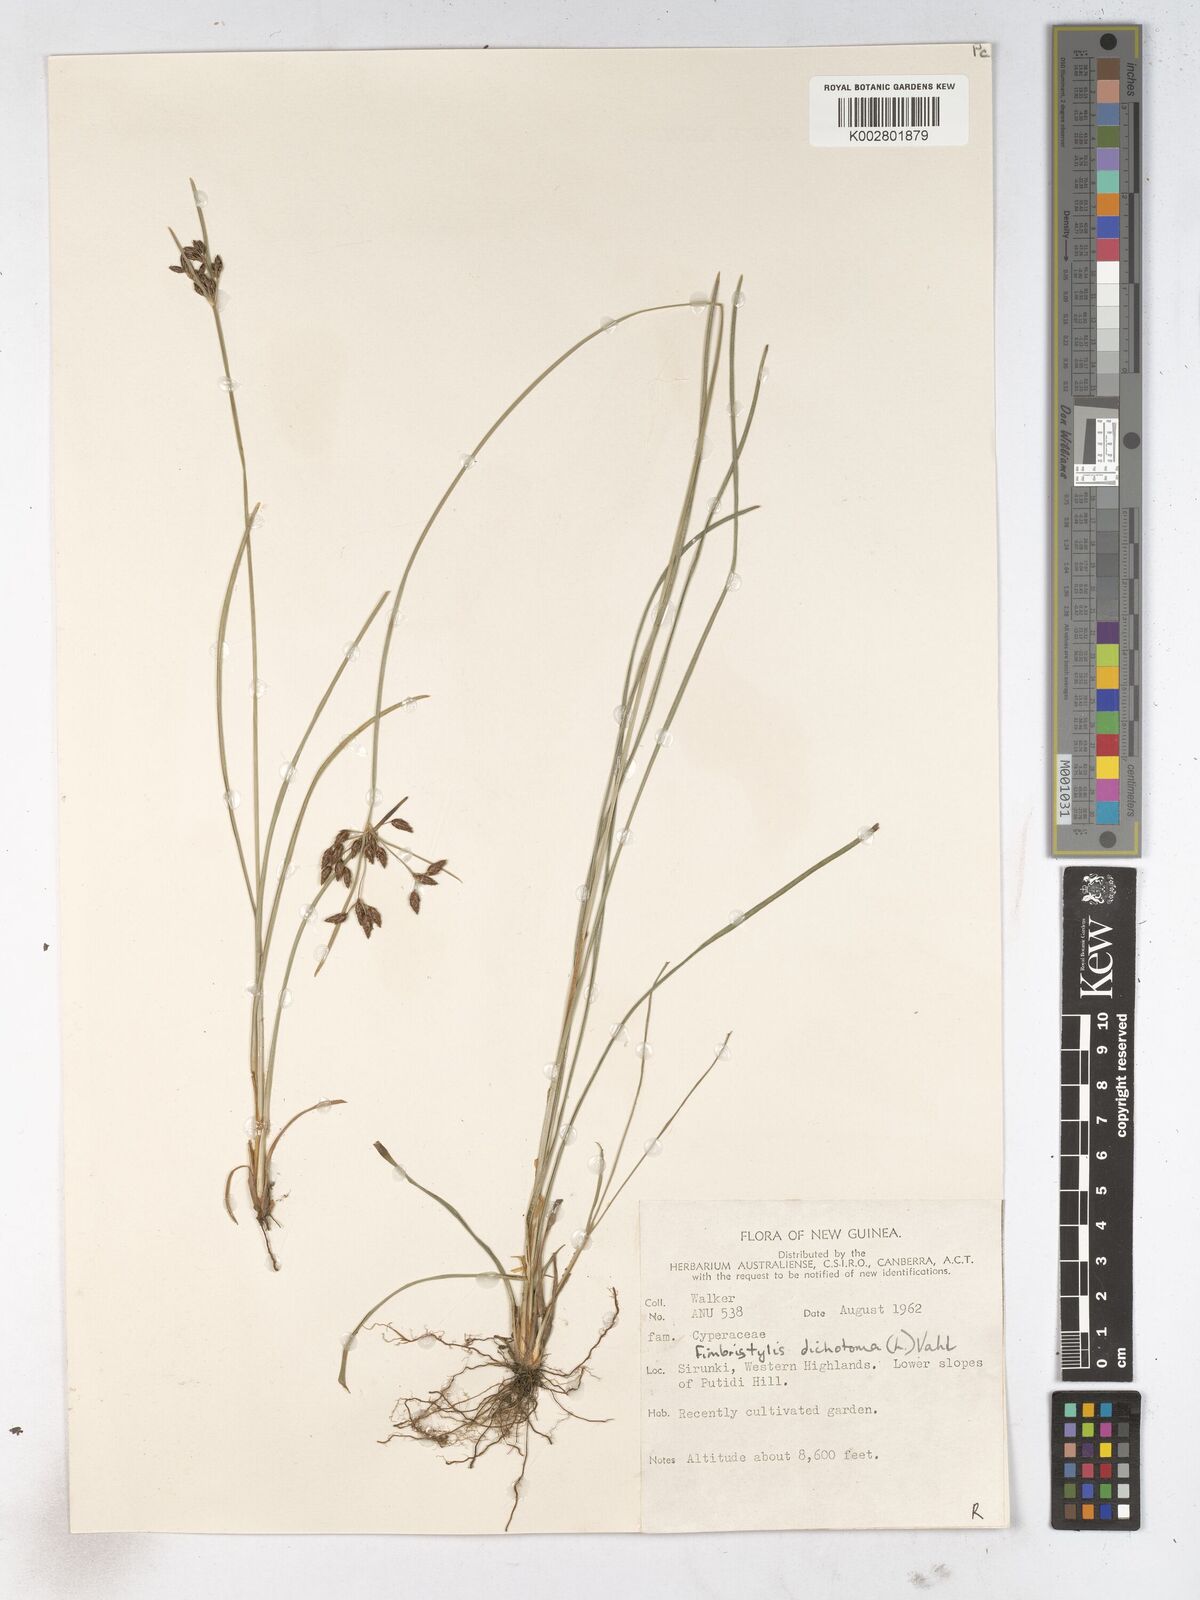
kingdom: Plantae
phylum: Tracheophyta
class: Liliopsida
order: Poales
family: Cyperaceae
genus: Fimbristylis
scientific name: Fimbristylis dichotoma
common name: Forked fimbry
